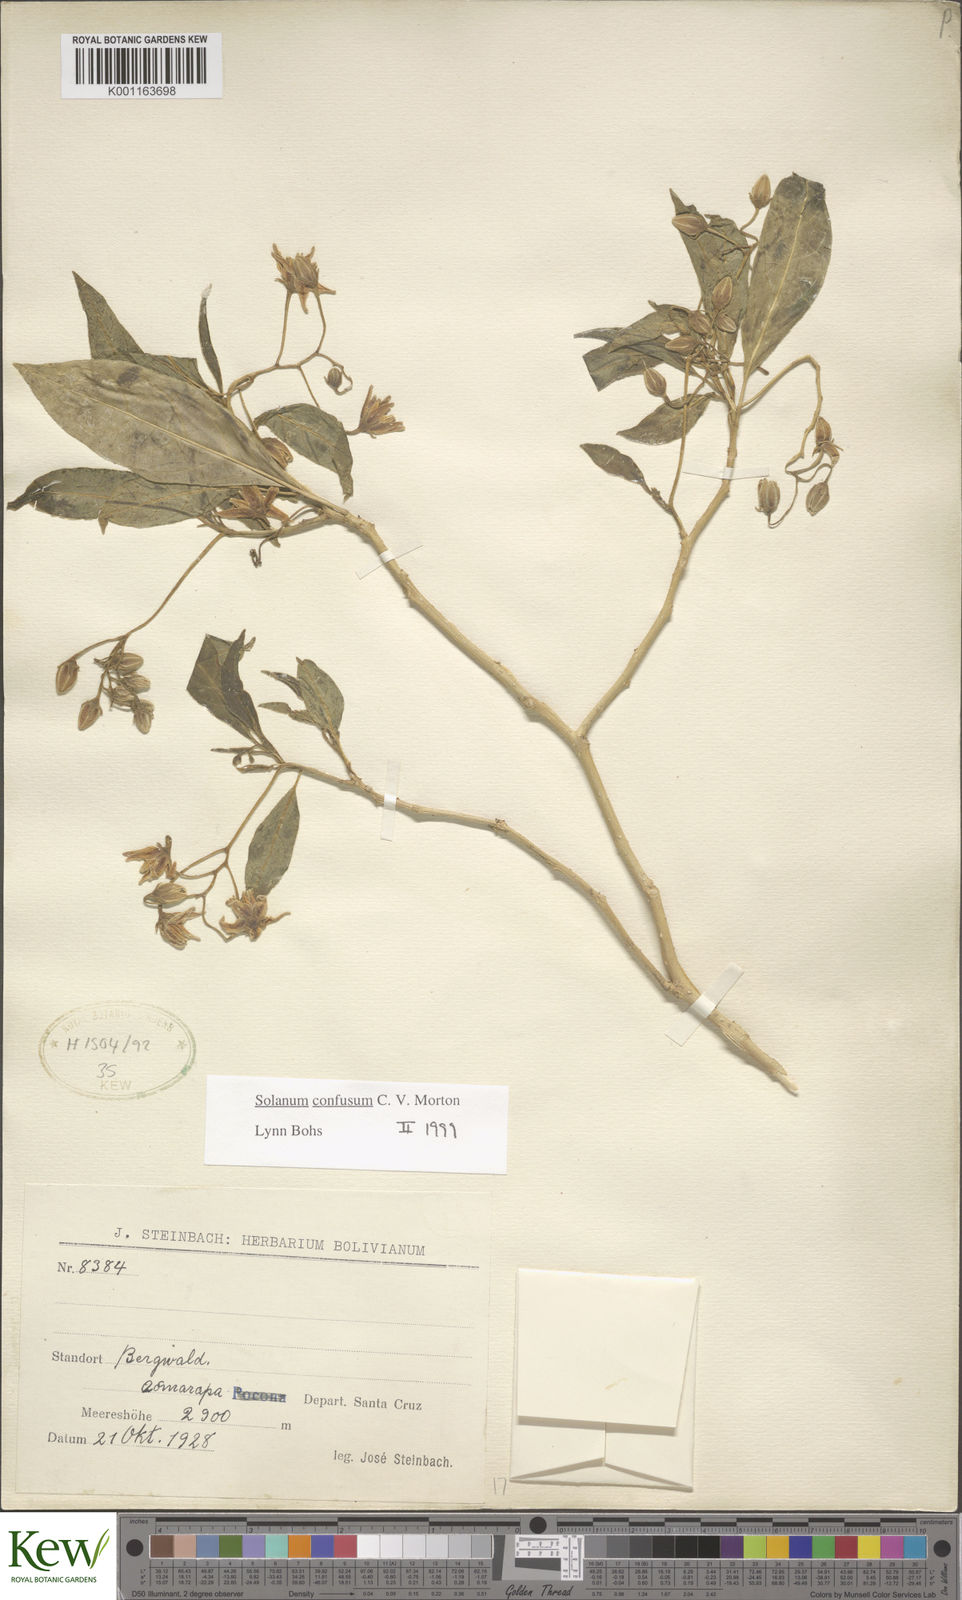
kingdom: Plantae
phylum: Tracheophyta
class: Magnoliopsida
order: Solanales
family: Solanaceae
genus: Solanum
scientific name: Solanum confusum
